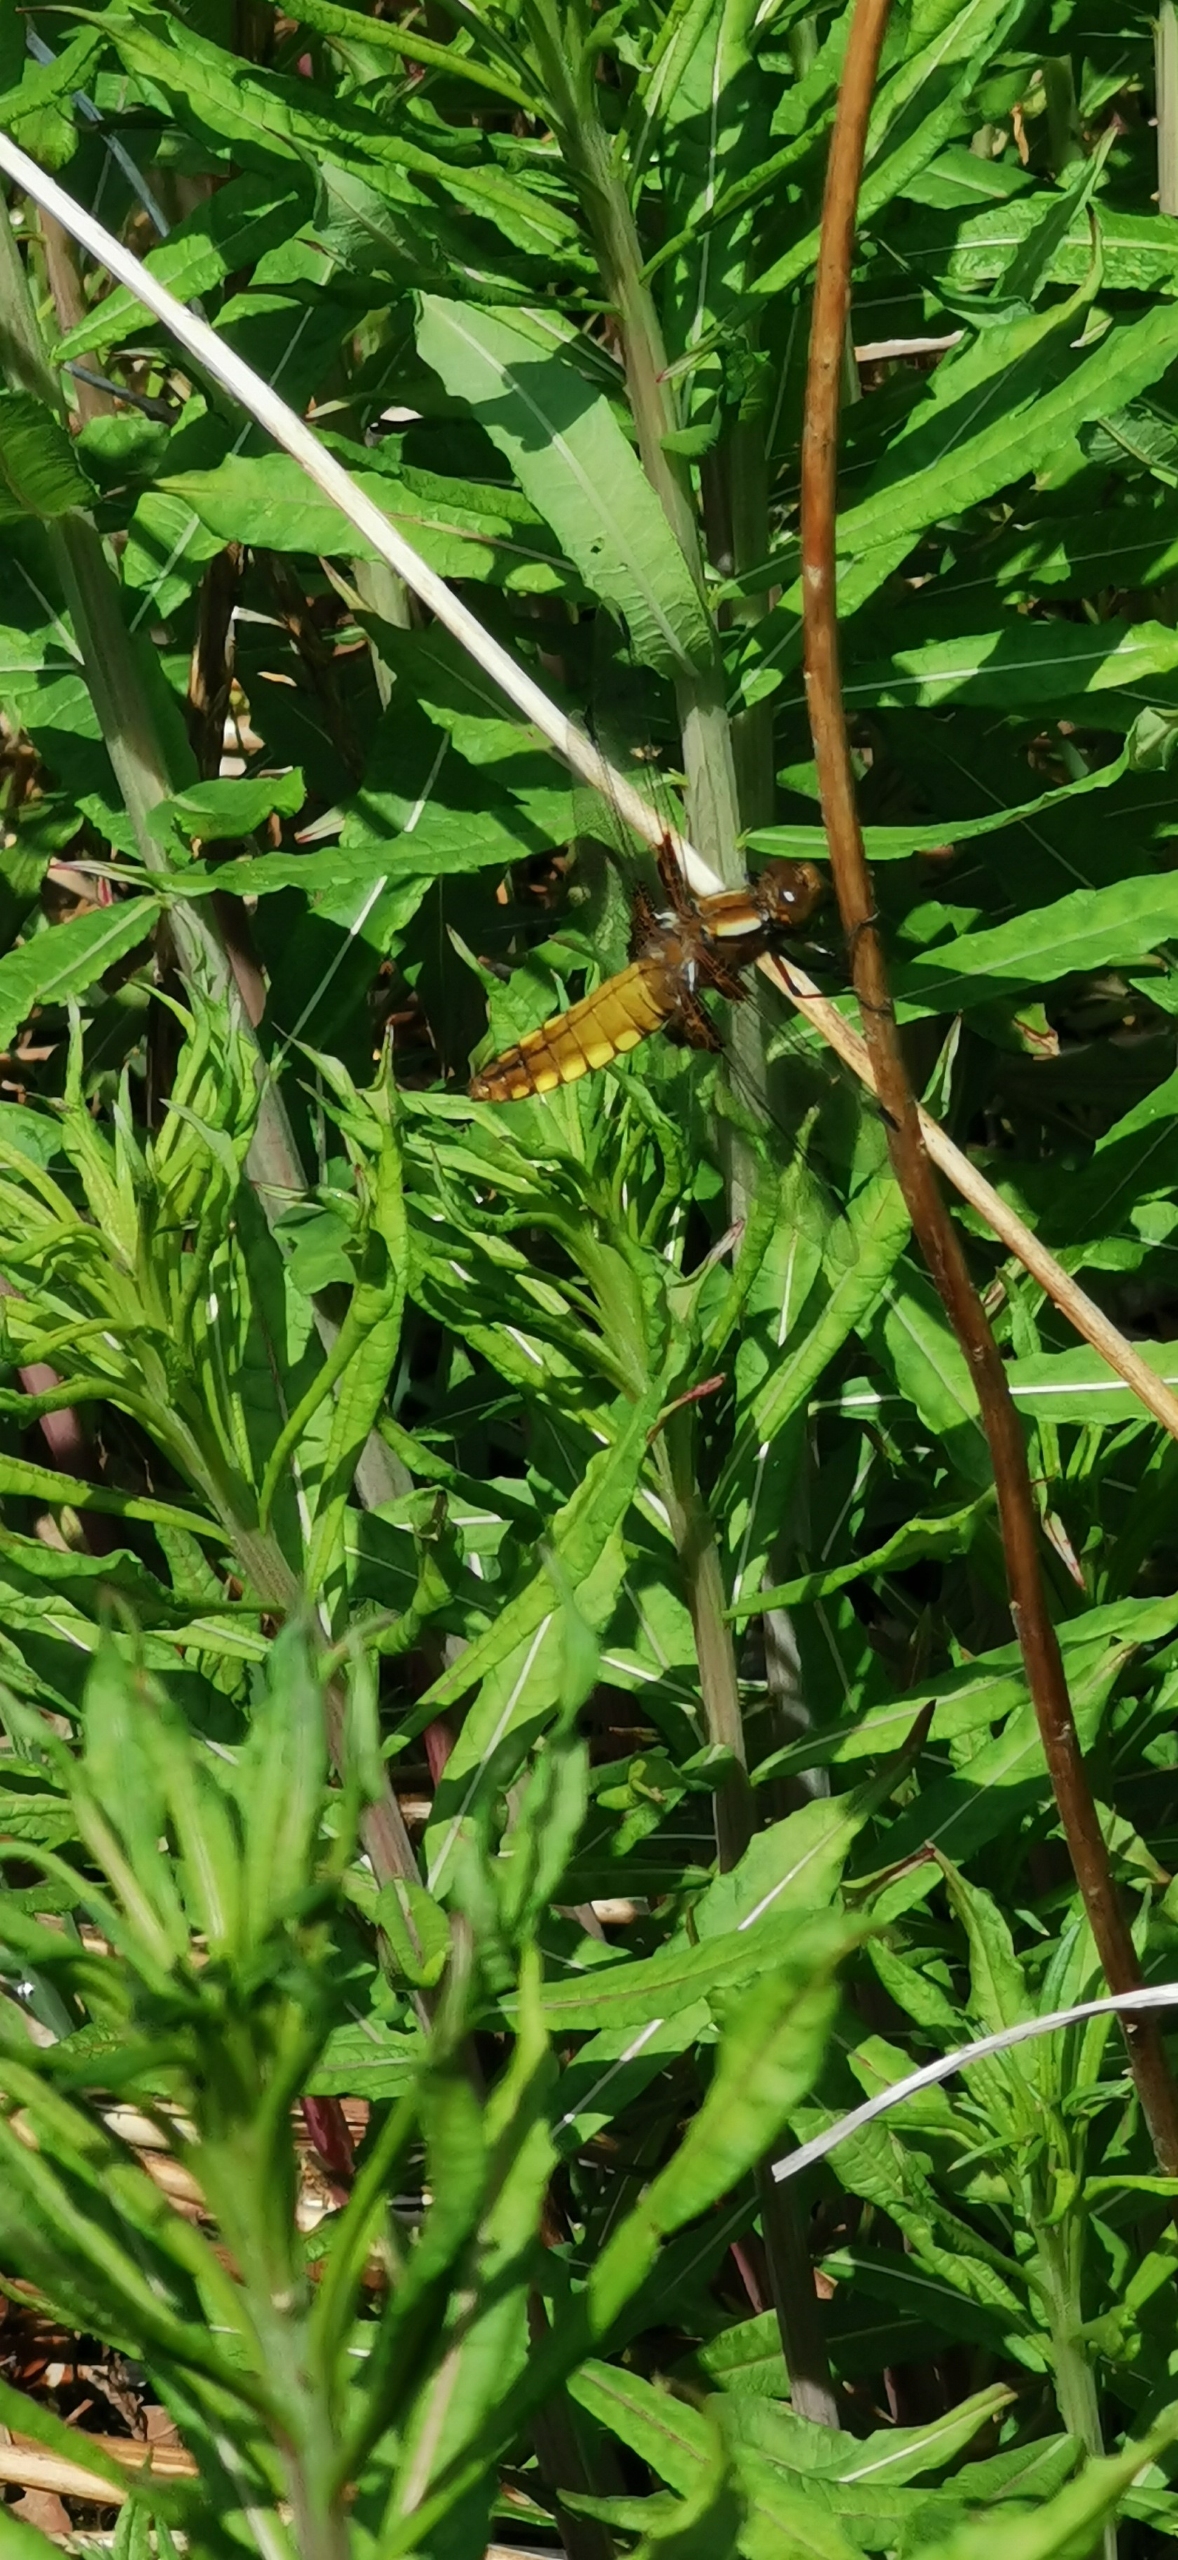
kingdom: Animalia
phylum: Arthropoda
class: Insecta
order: Odonata
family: Libellulidae
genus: Libellula
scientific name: Libellula depressa
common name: Blå libel
